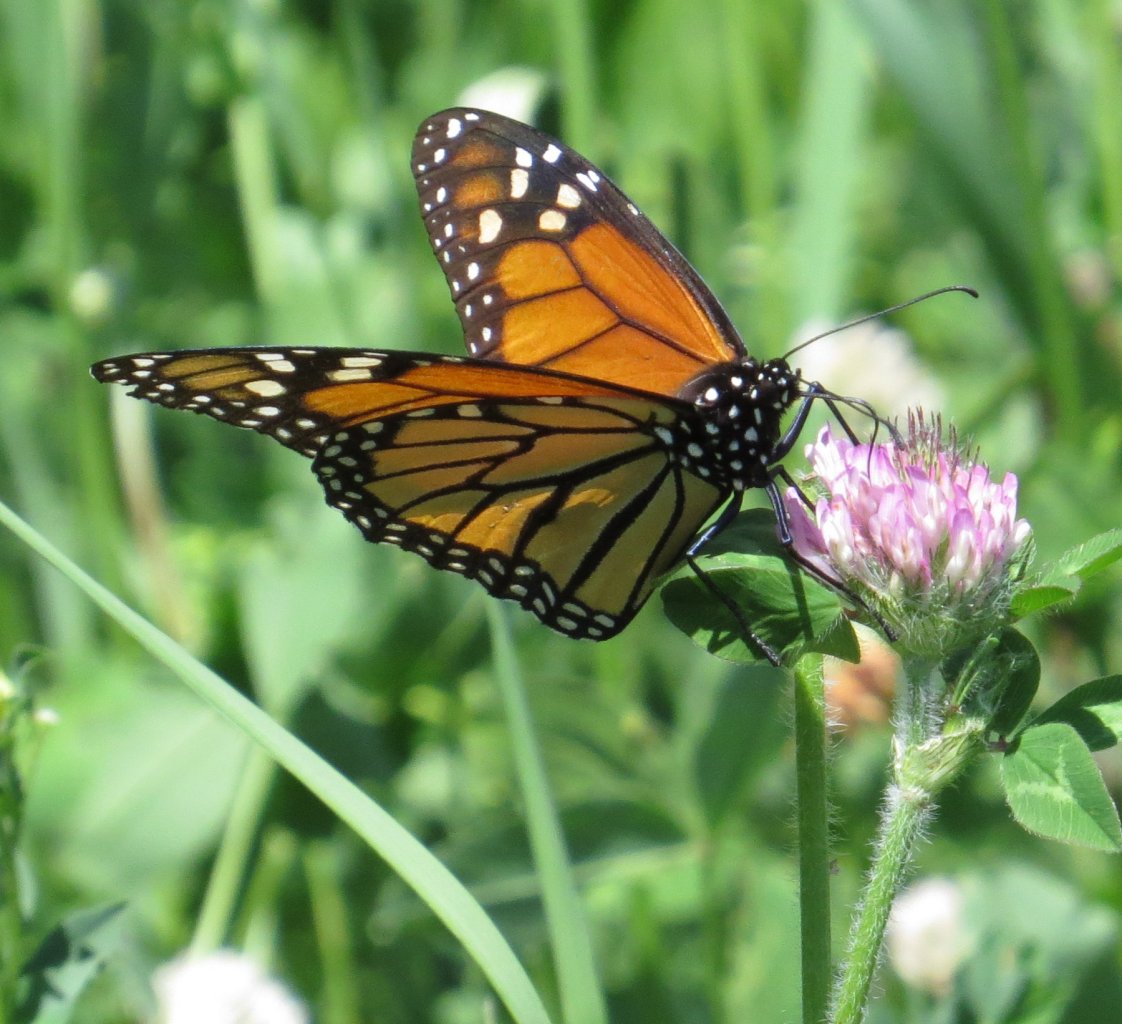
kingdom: Animalia
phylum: Arthropoda
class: Insecta
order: Lepidoptera
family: Nymphalidae
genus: Danaus
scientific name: Danaus plexippus
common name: Monarch
